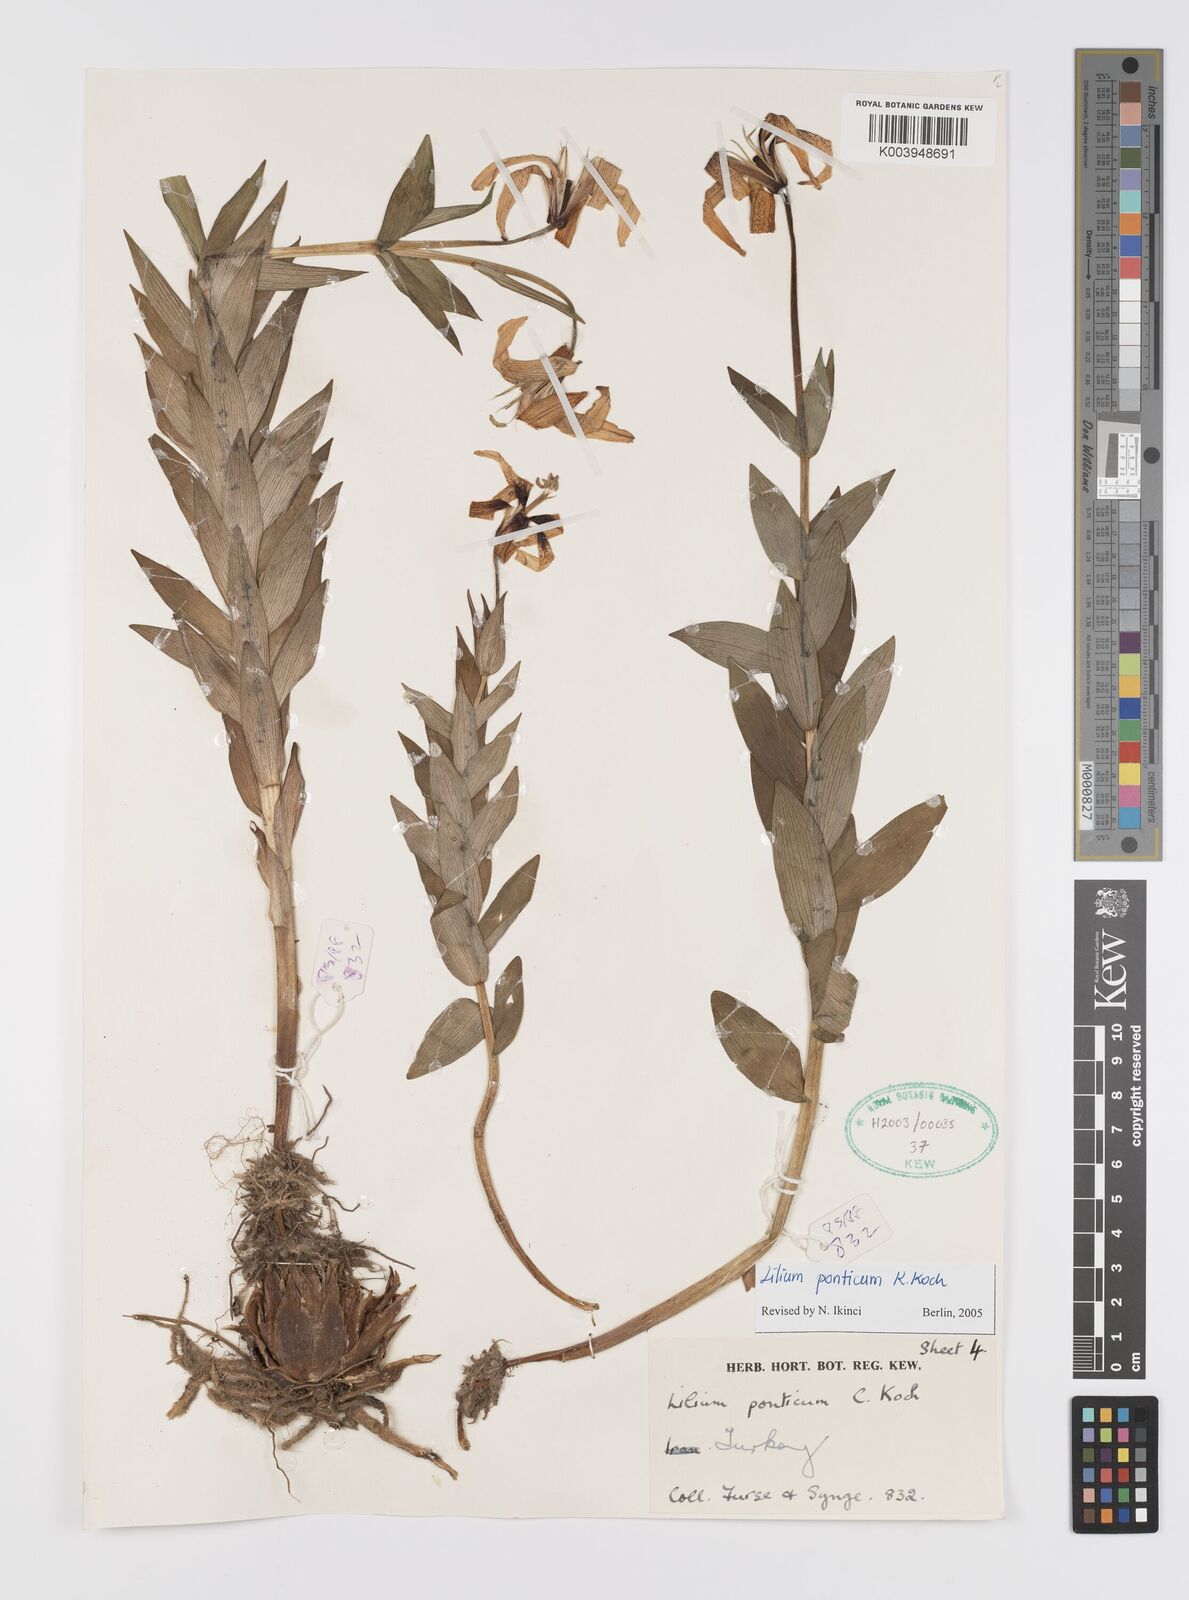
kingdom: Plantae
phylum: Tracheophyta
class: Liliopsida
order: Liliales
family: Liliaceae
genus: Lilium
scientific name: Lilium ponticum
